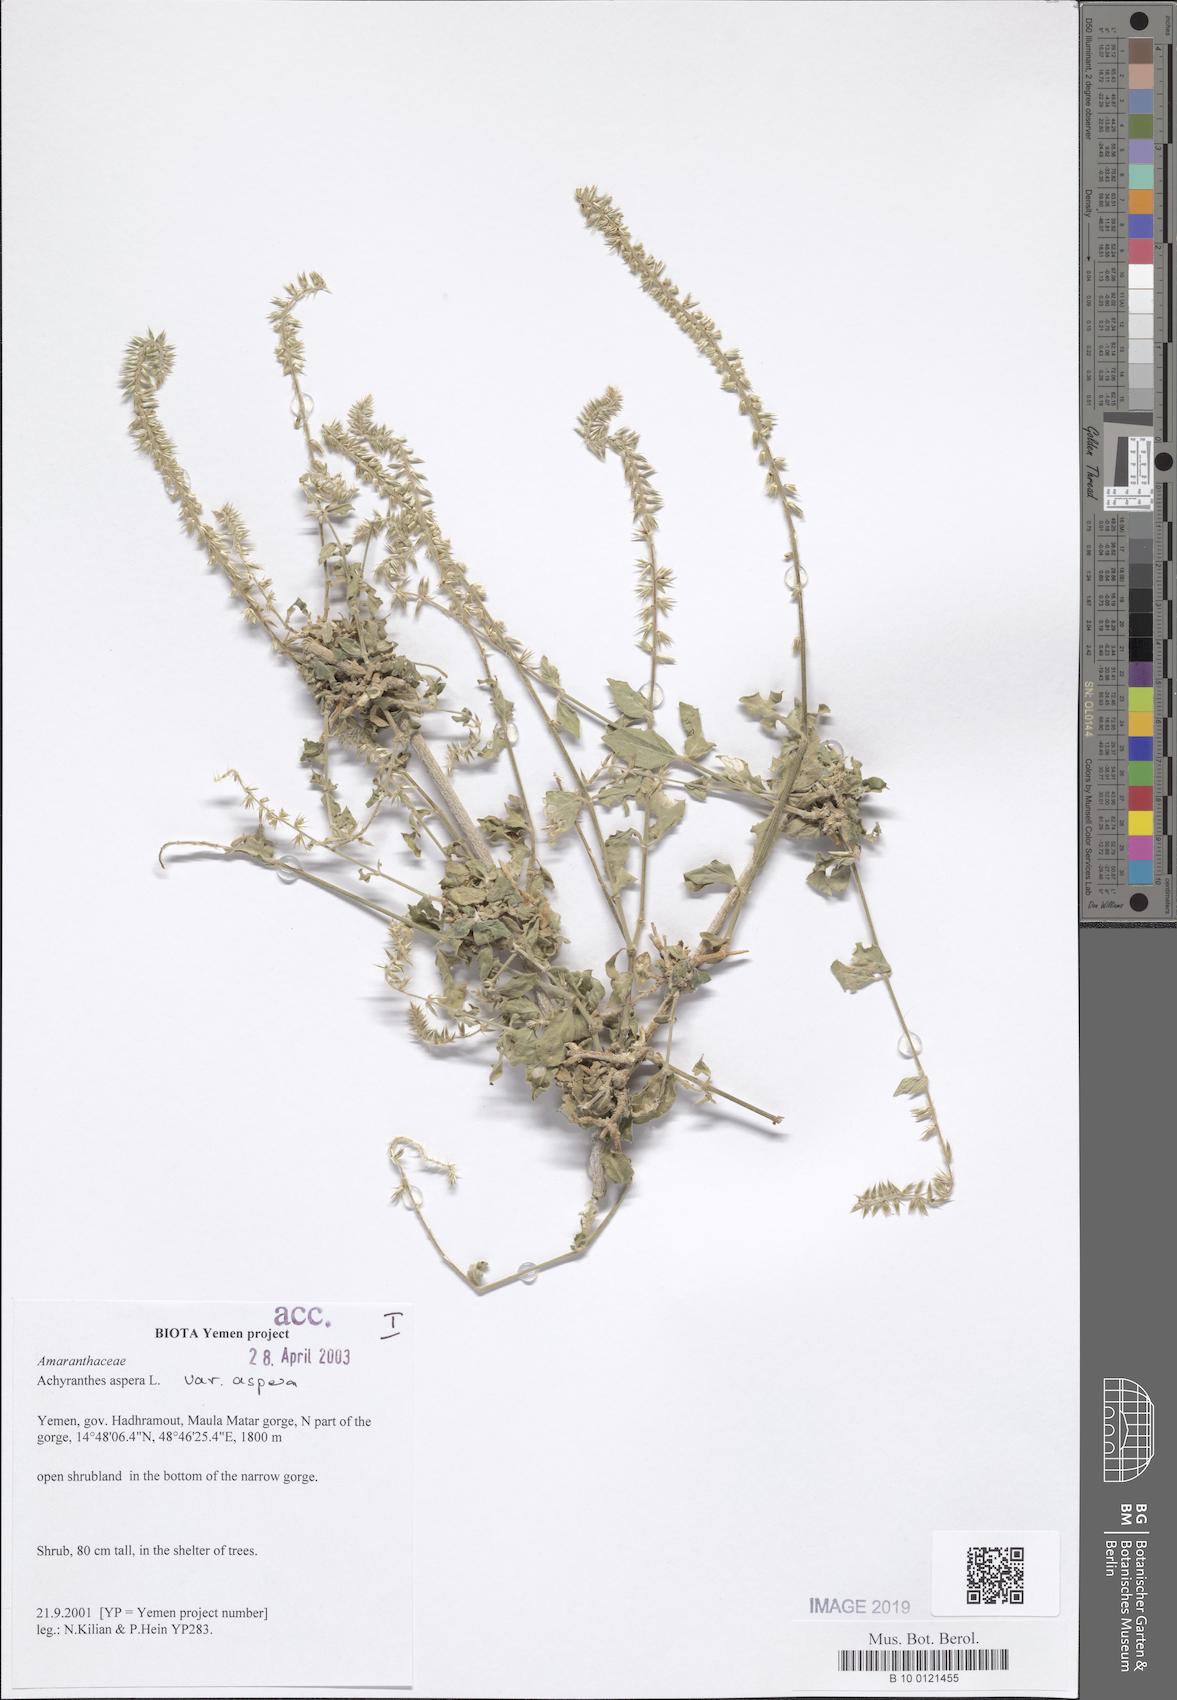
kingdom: Plantae
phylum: Tracheophyta
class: Magnoliopsida
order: Caryophyllales
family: Amaranthaceae
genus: Achyranthes
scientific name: Achyranthes aspera
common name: Devil's horsewhip
